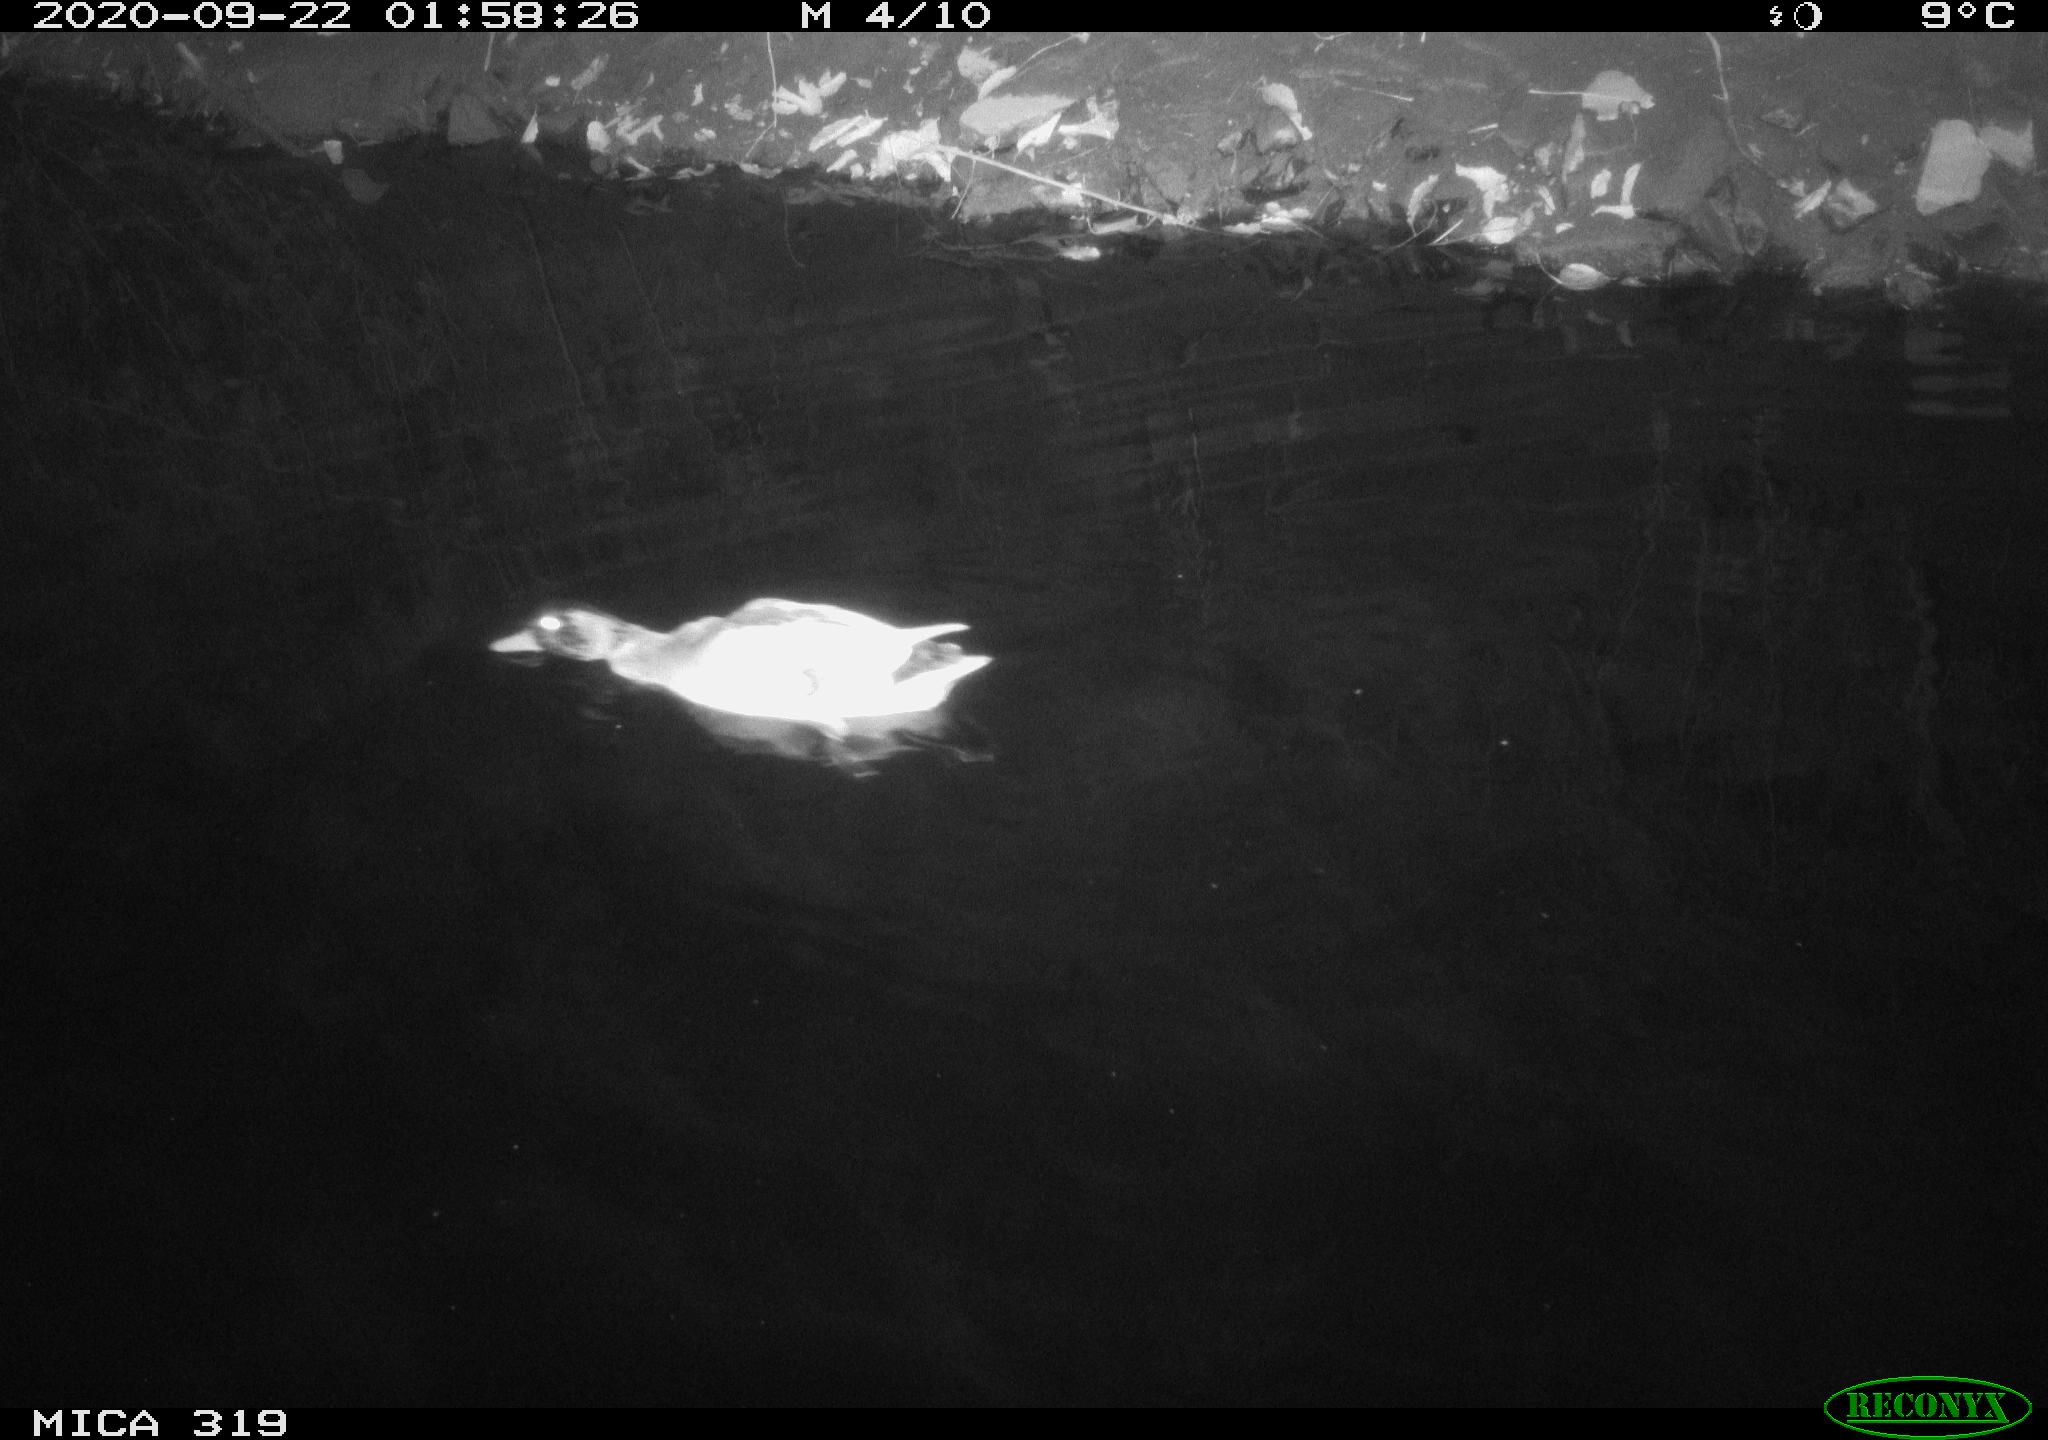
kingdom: Animalia
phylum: Chordata
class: Aves
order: Anseriformes
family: Anatidae
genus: Anas
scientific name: Anas platyrhynchos
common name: Mallard
